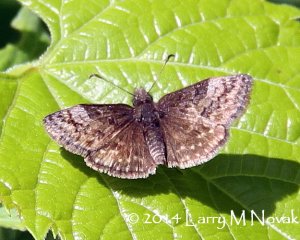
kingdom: Animalia
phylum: Arthropoda
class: Insecta
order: Lepidoptera
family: Hesperiidae
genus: Erynnis
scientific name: Erynnis icelus
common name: Dreamy Duskywing
